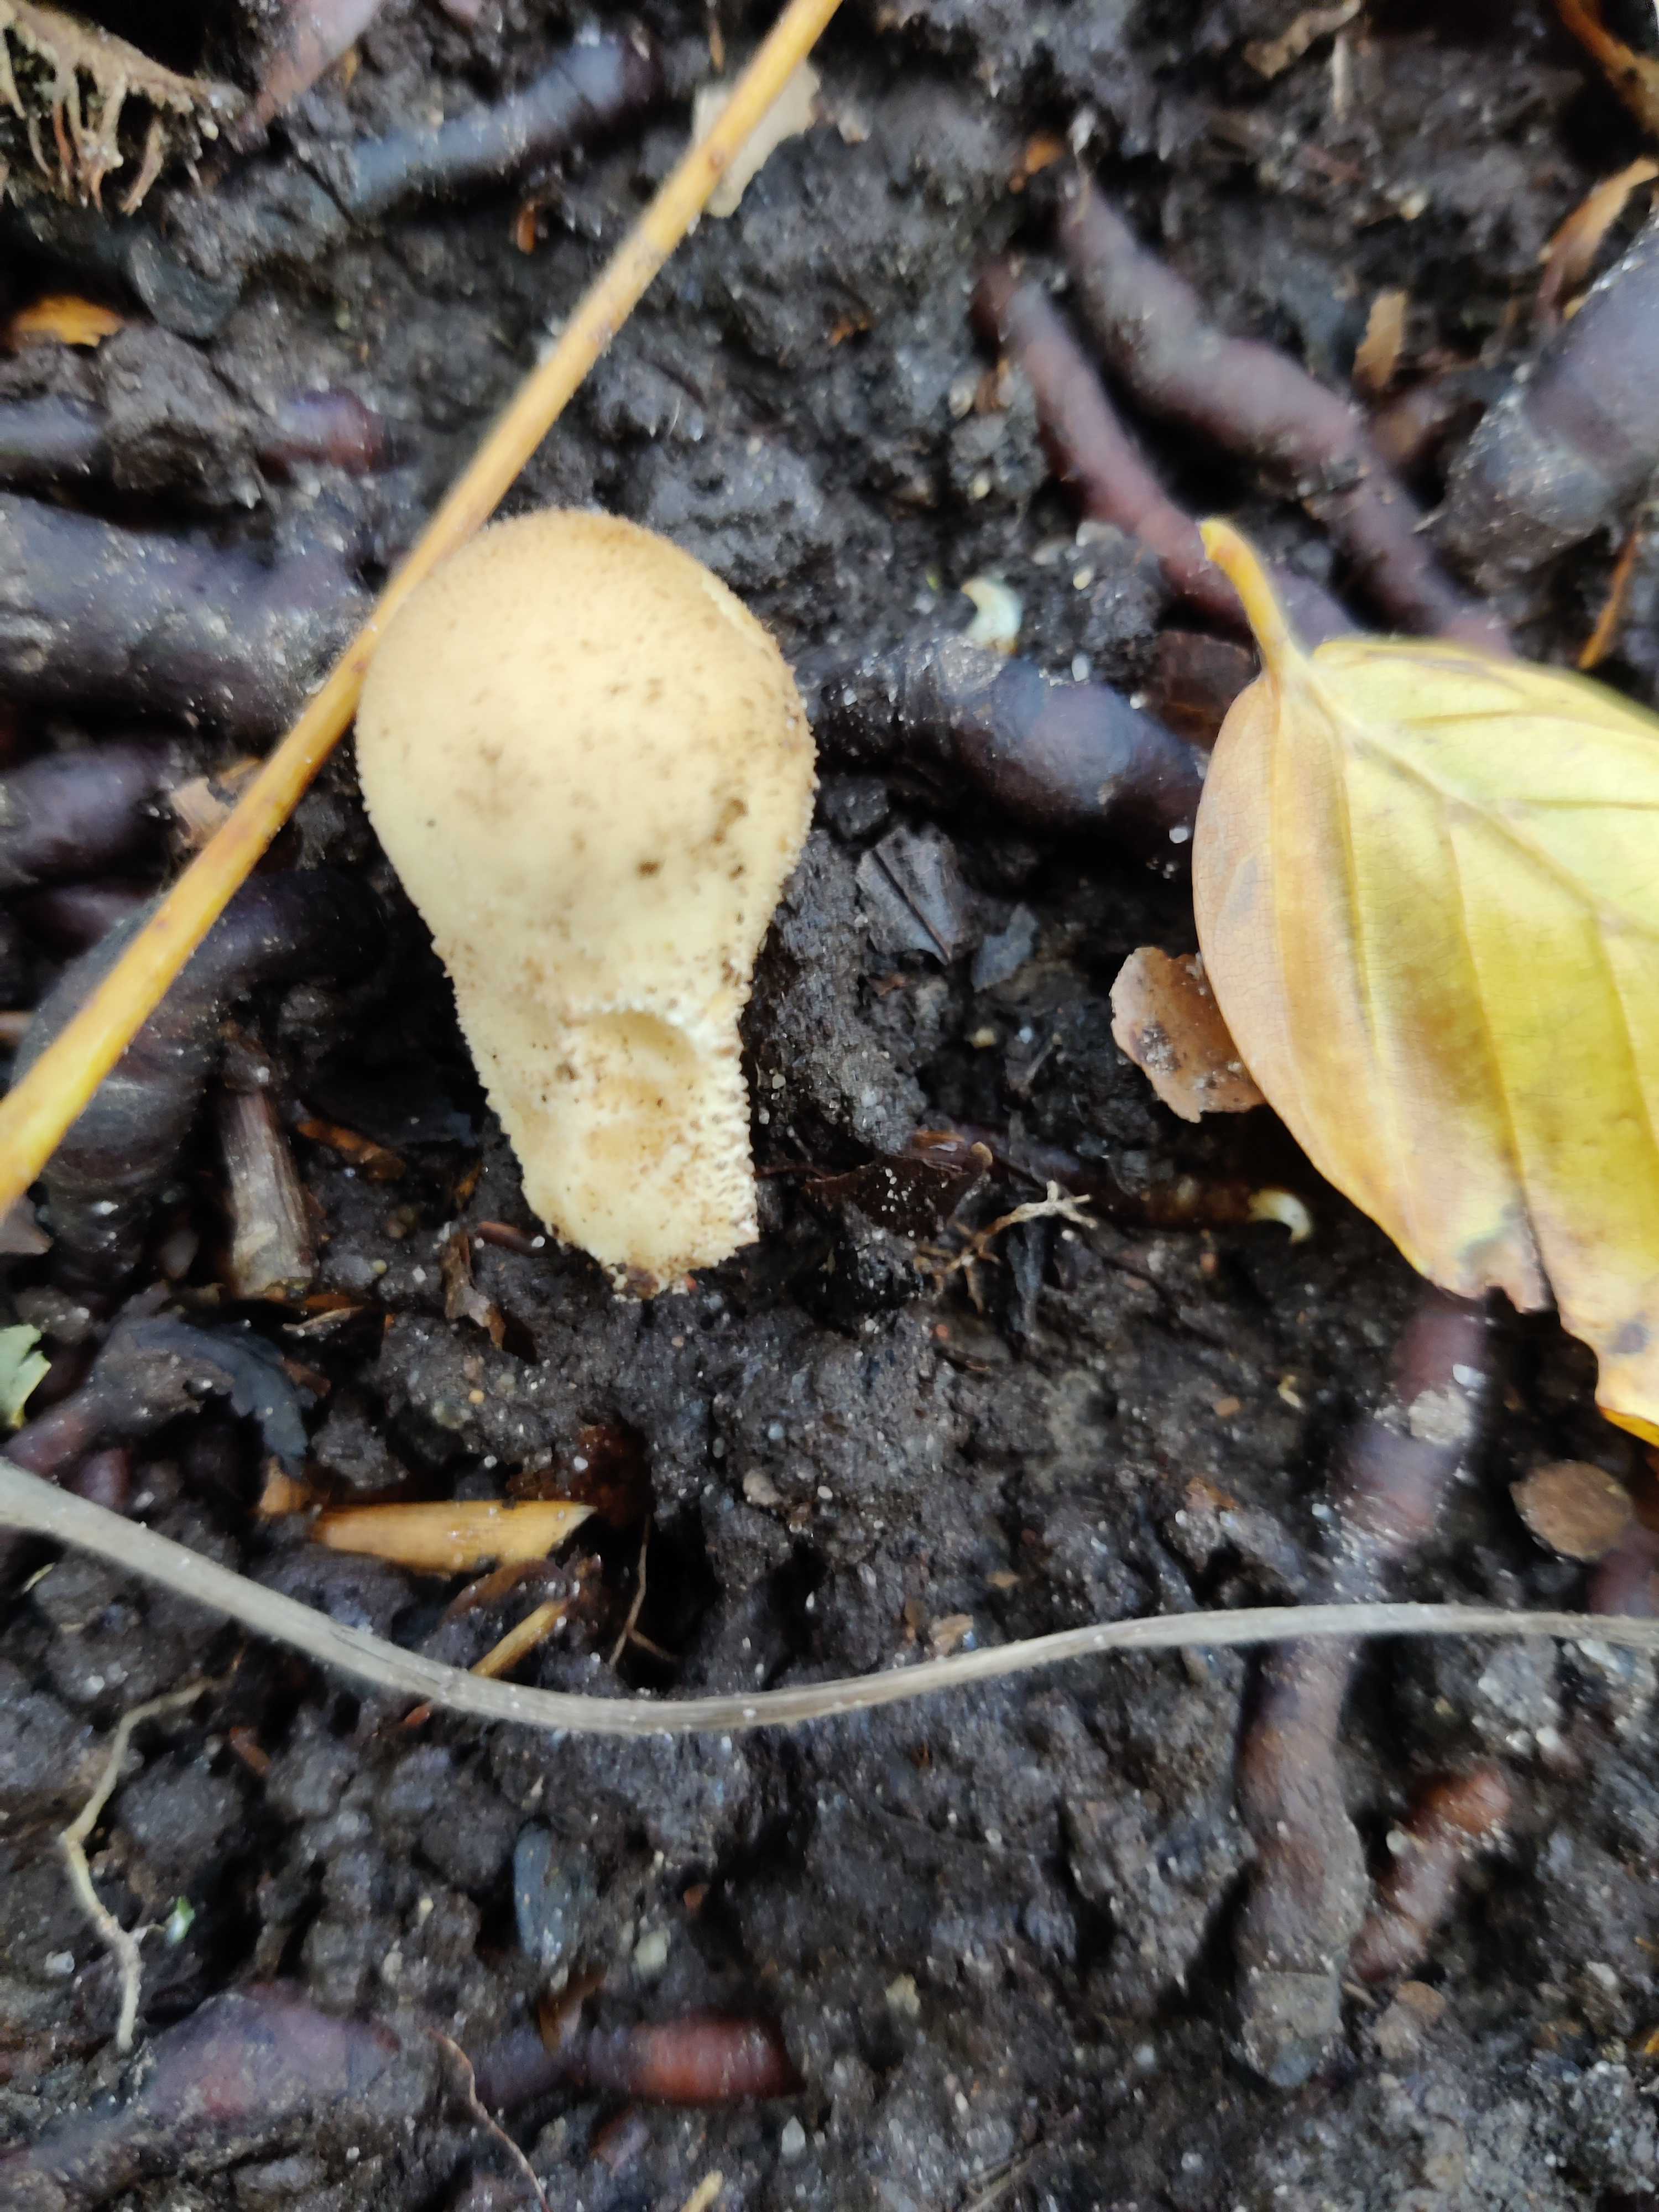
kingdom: Fungi
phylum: Basidiomycota
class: Agaricomycetes
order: Agaricales
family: Lycoperdaceae
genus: Apioperdon
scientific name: Apioperdon pyriforme
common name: pære-støvbold
